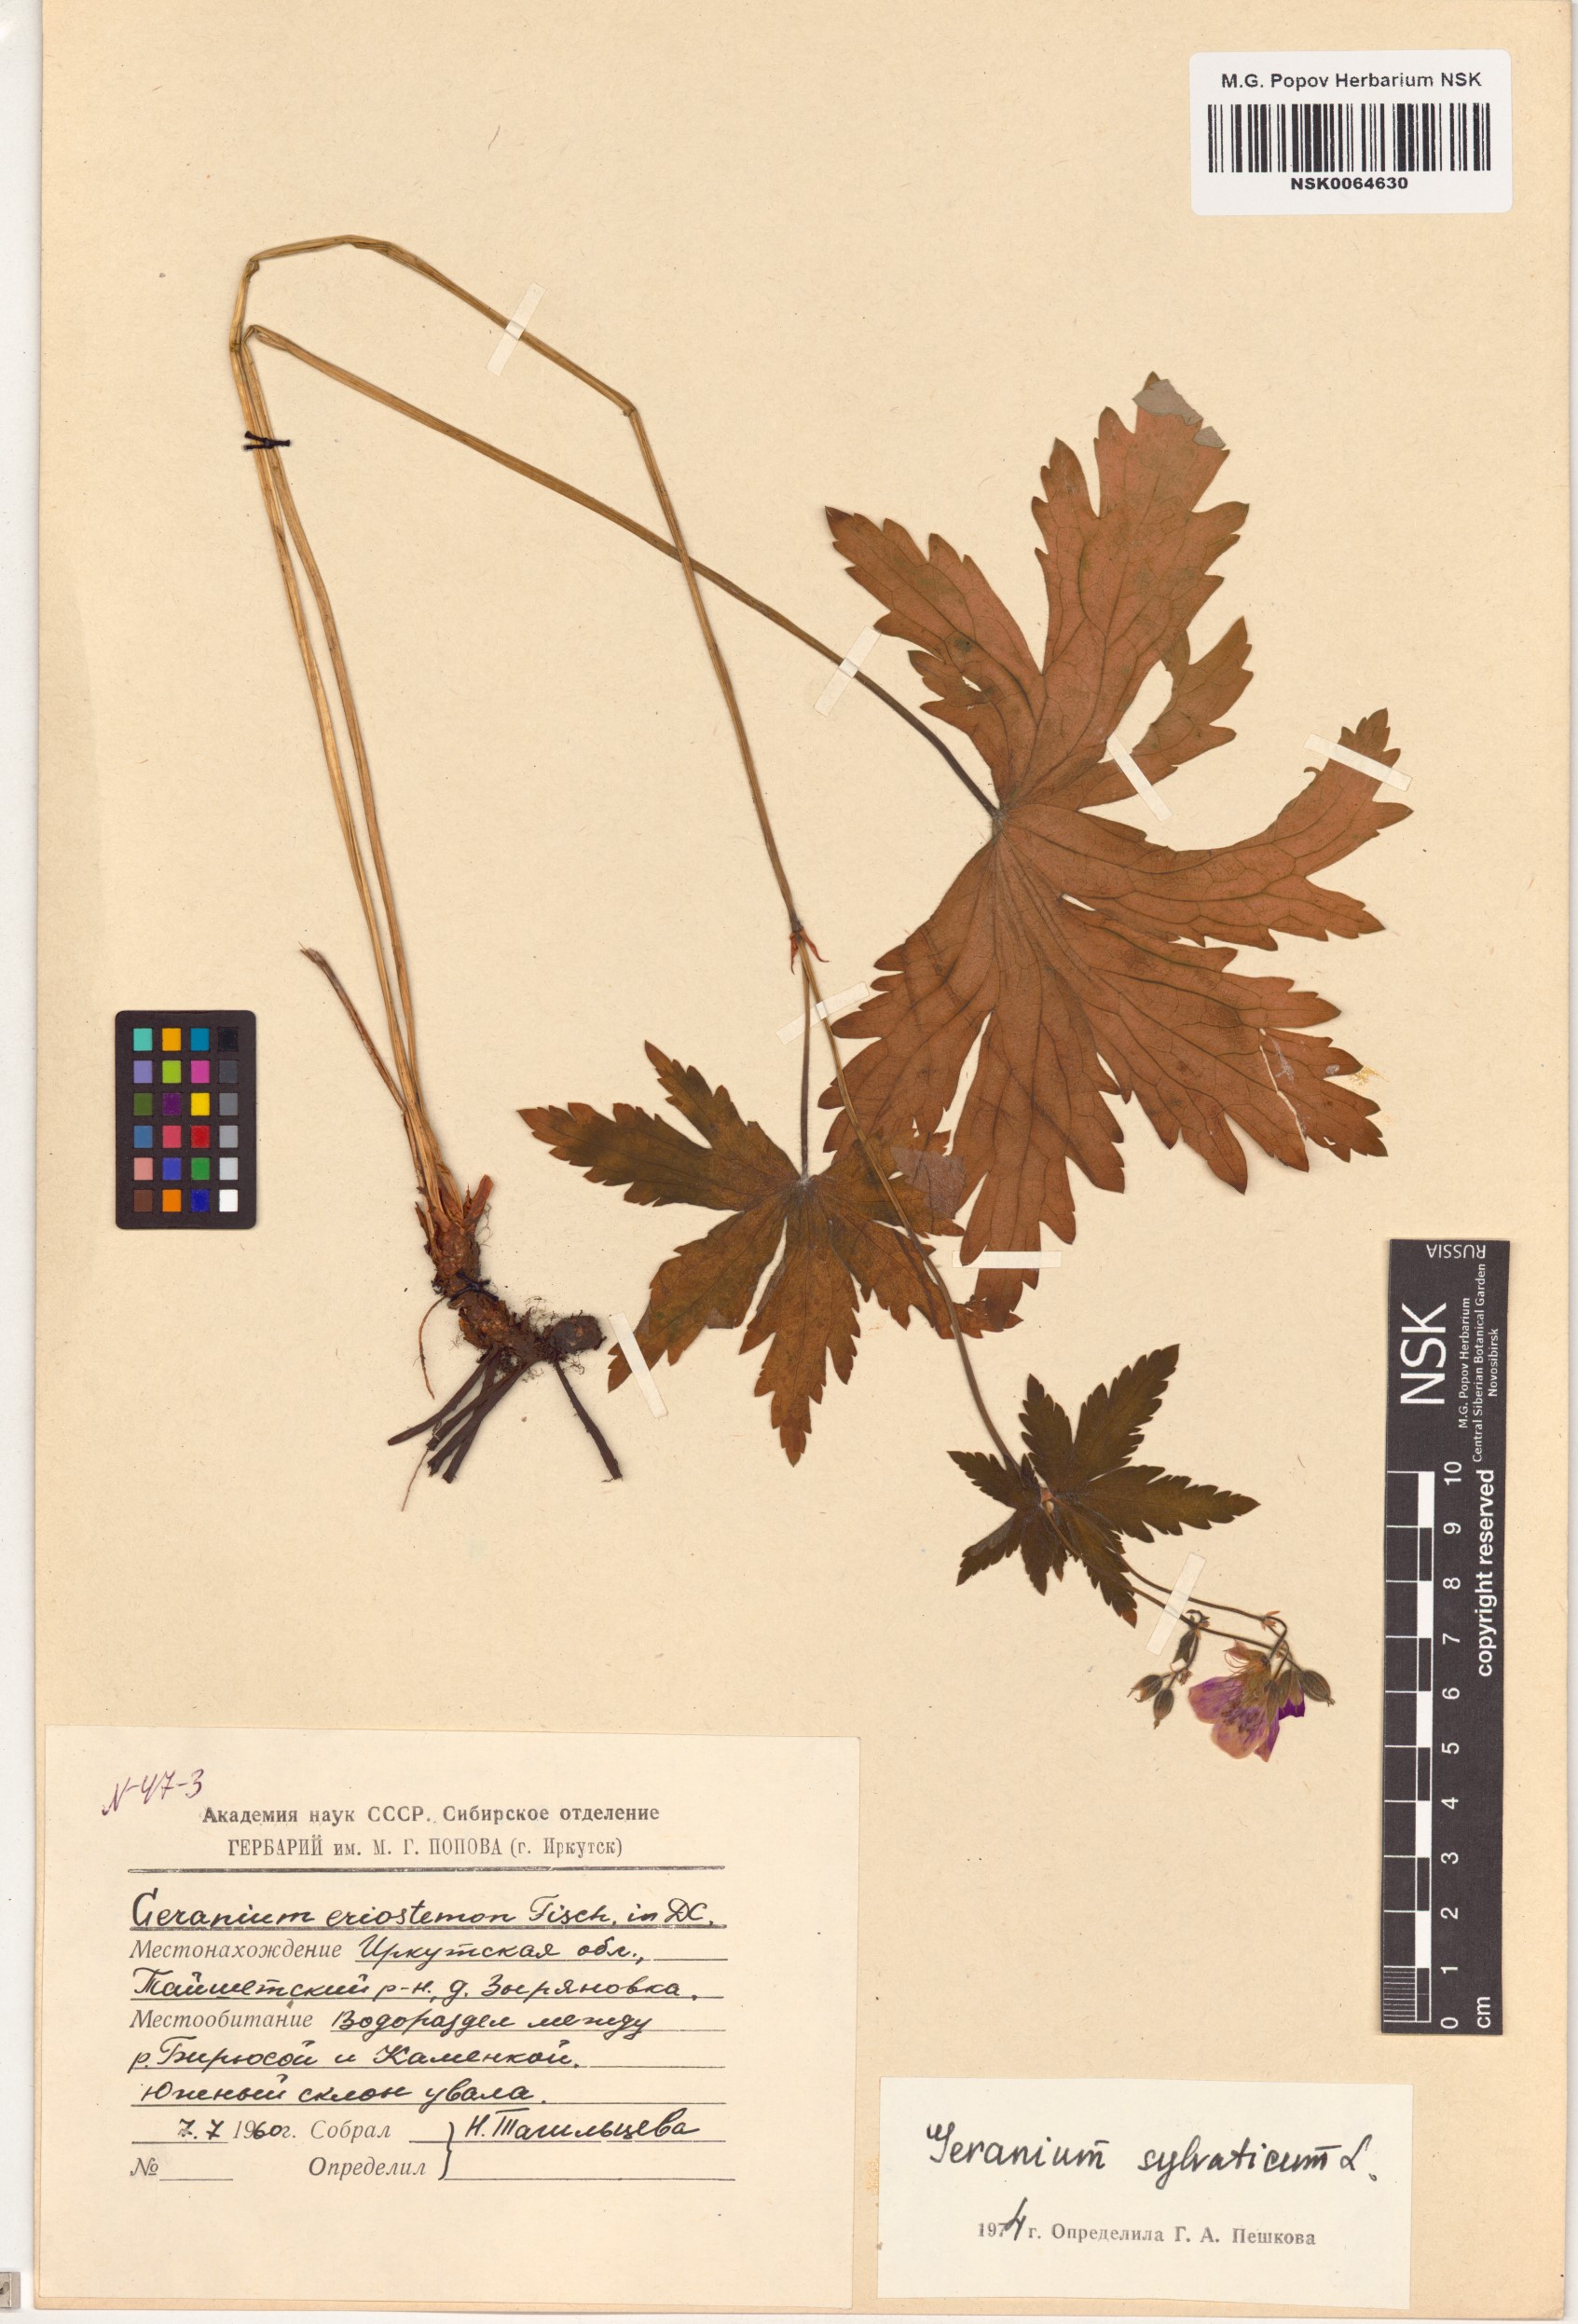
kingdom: Plantae
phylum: Tracheophyta
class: Magnoliopsida
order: Geraniales
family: Geraniaceae
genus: Geranium
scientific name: Geranium sylvaticum
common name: Wood crane's-bill
